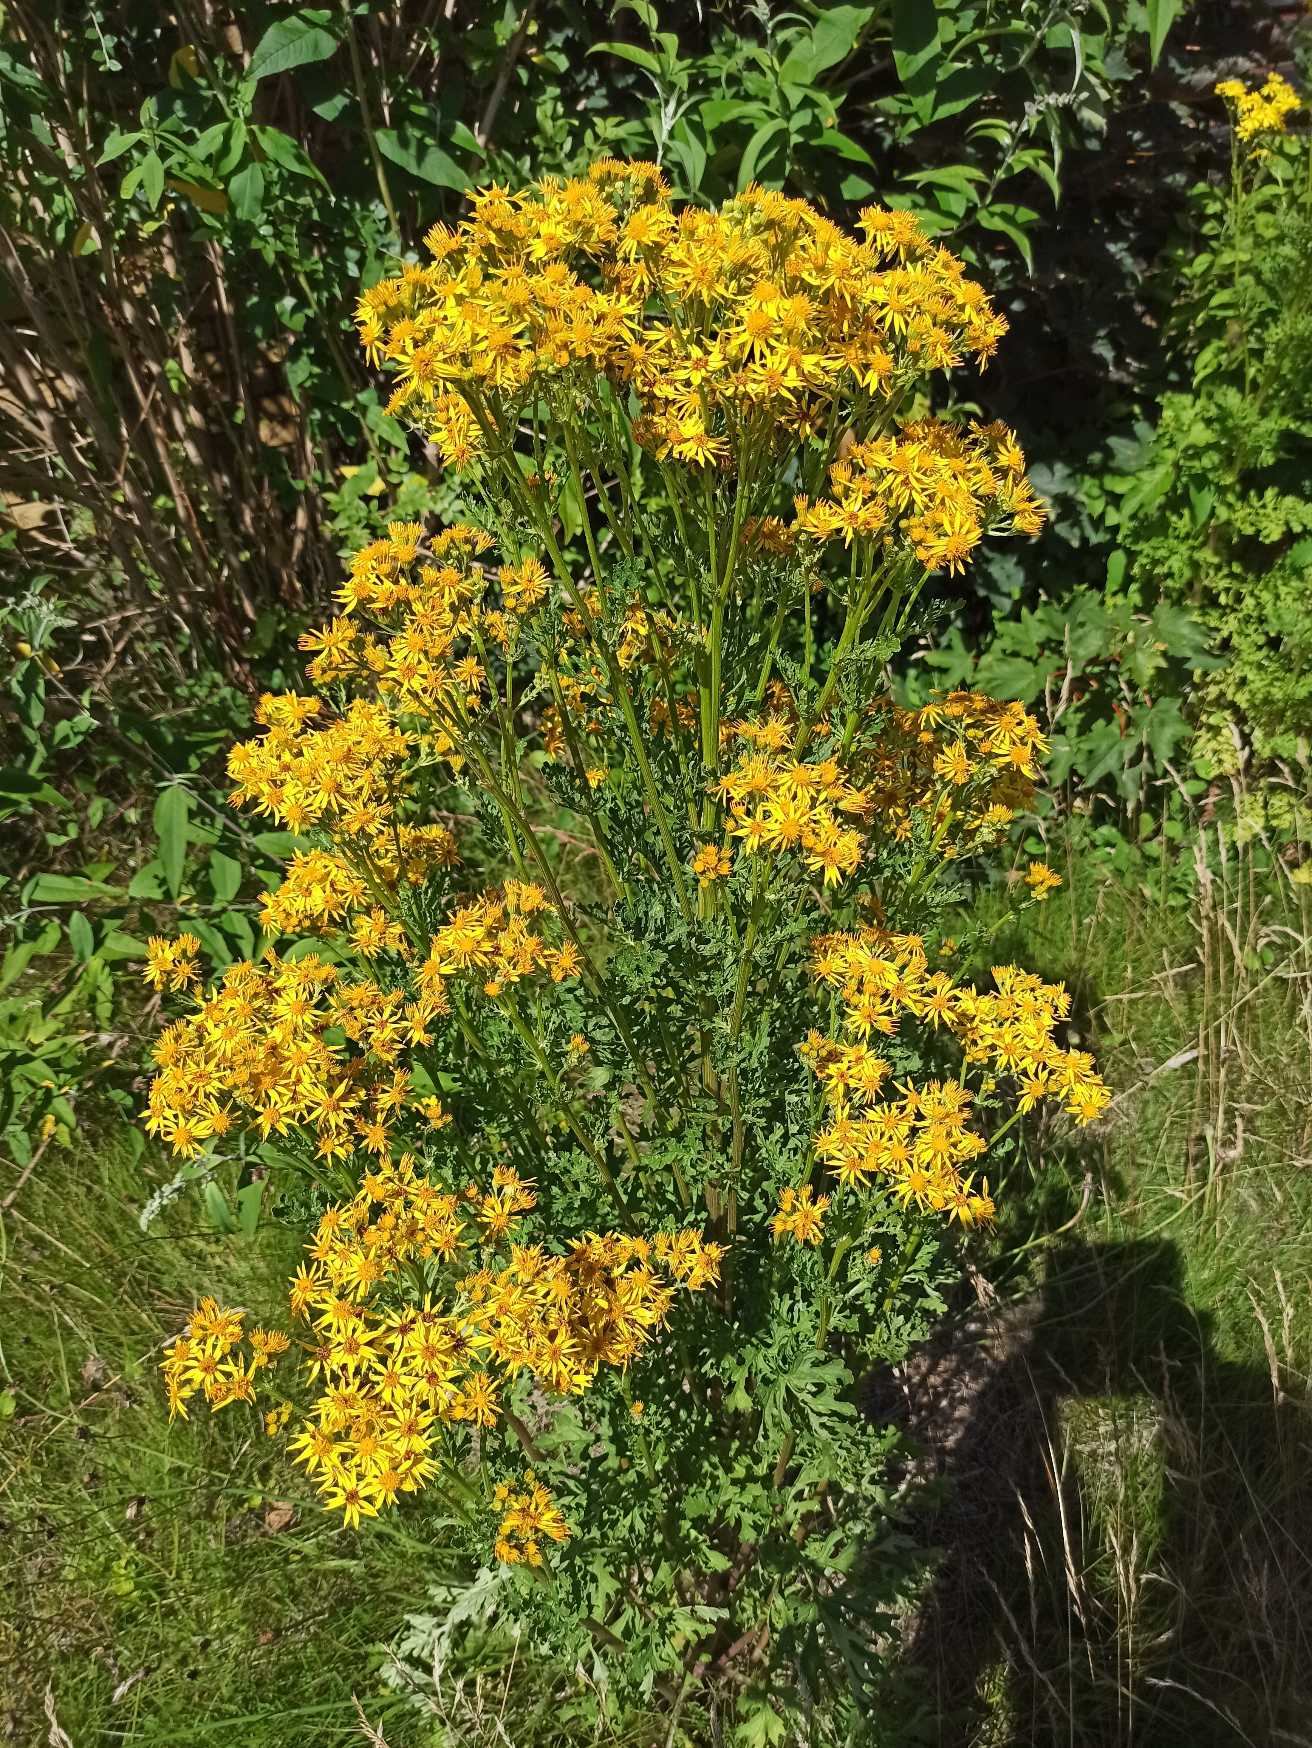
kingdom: Plantae
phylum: Tracheophyta
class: Magnoliopsida
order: Asterales
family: Asteraceae
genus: Jacobaea
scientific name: Jacobaea vulgaris
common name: Eng-brandbæger
